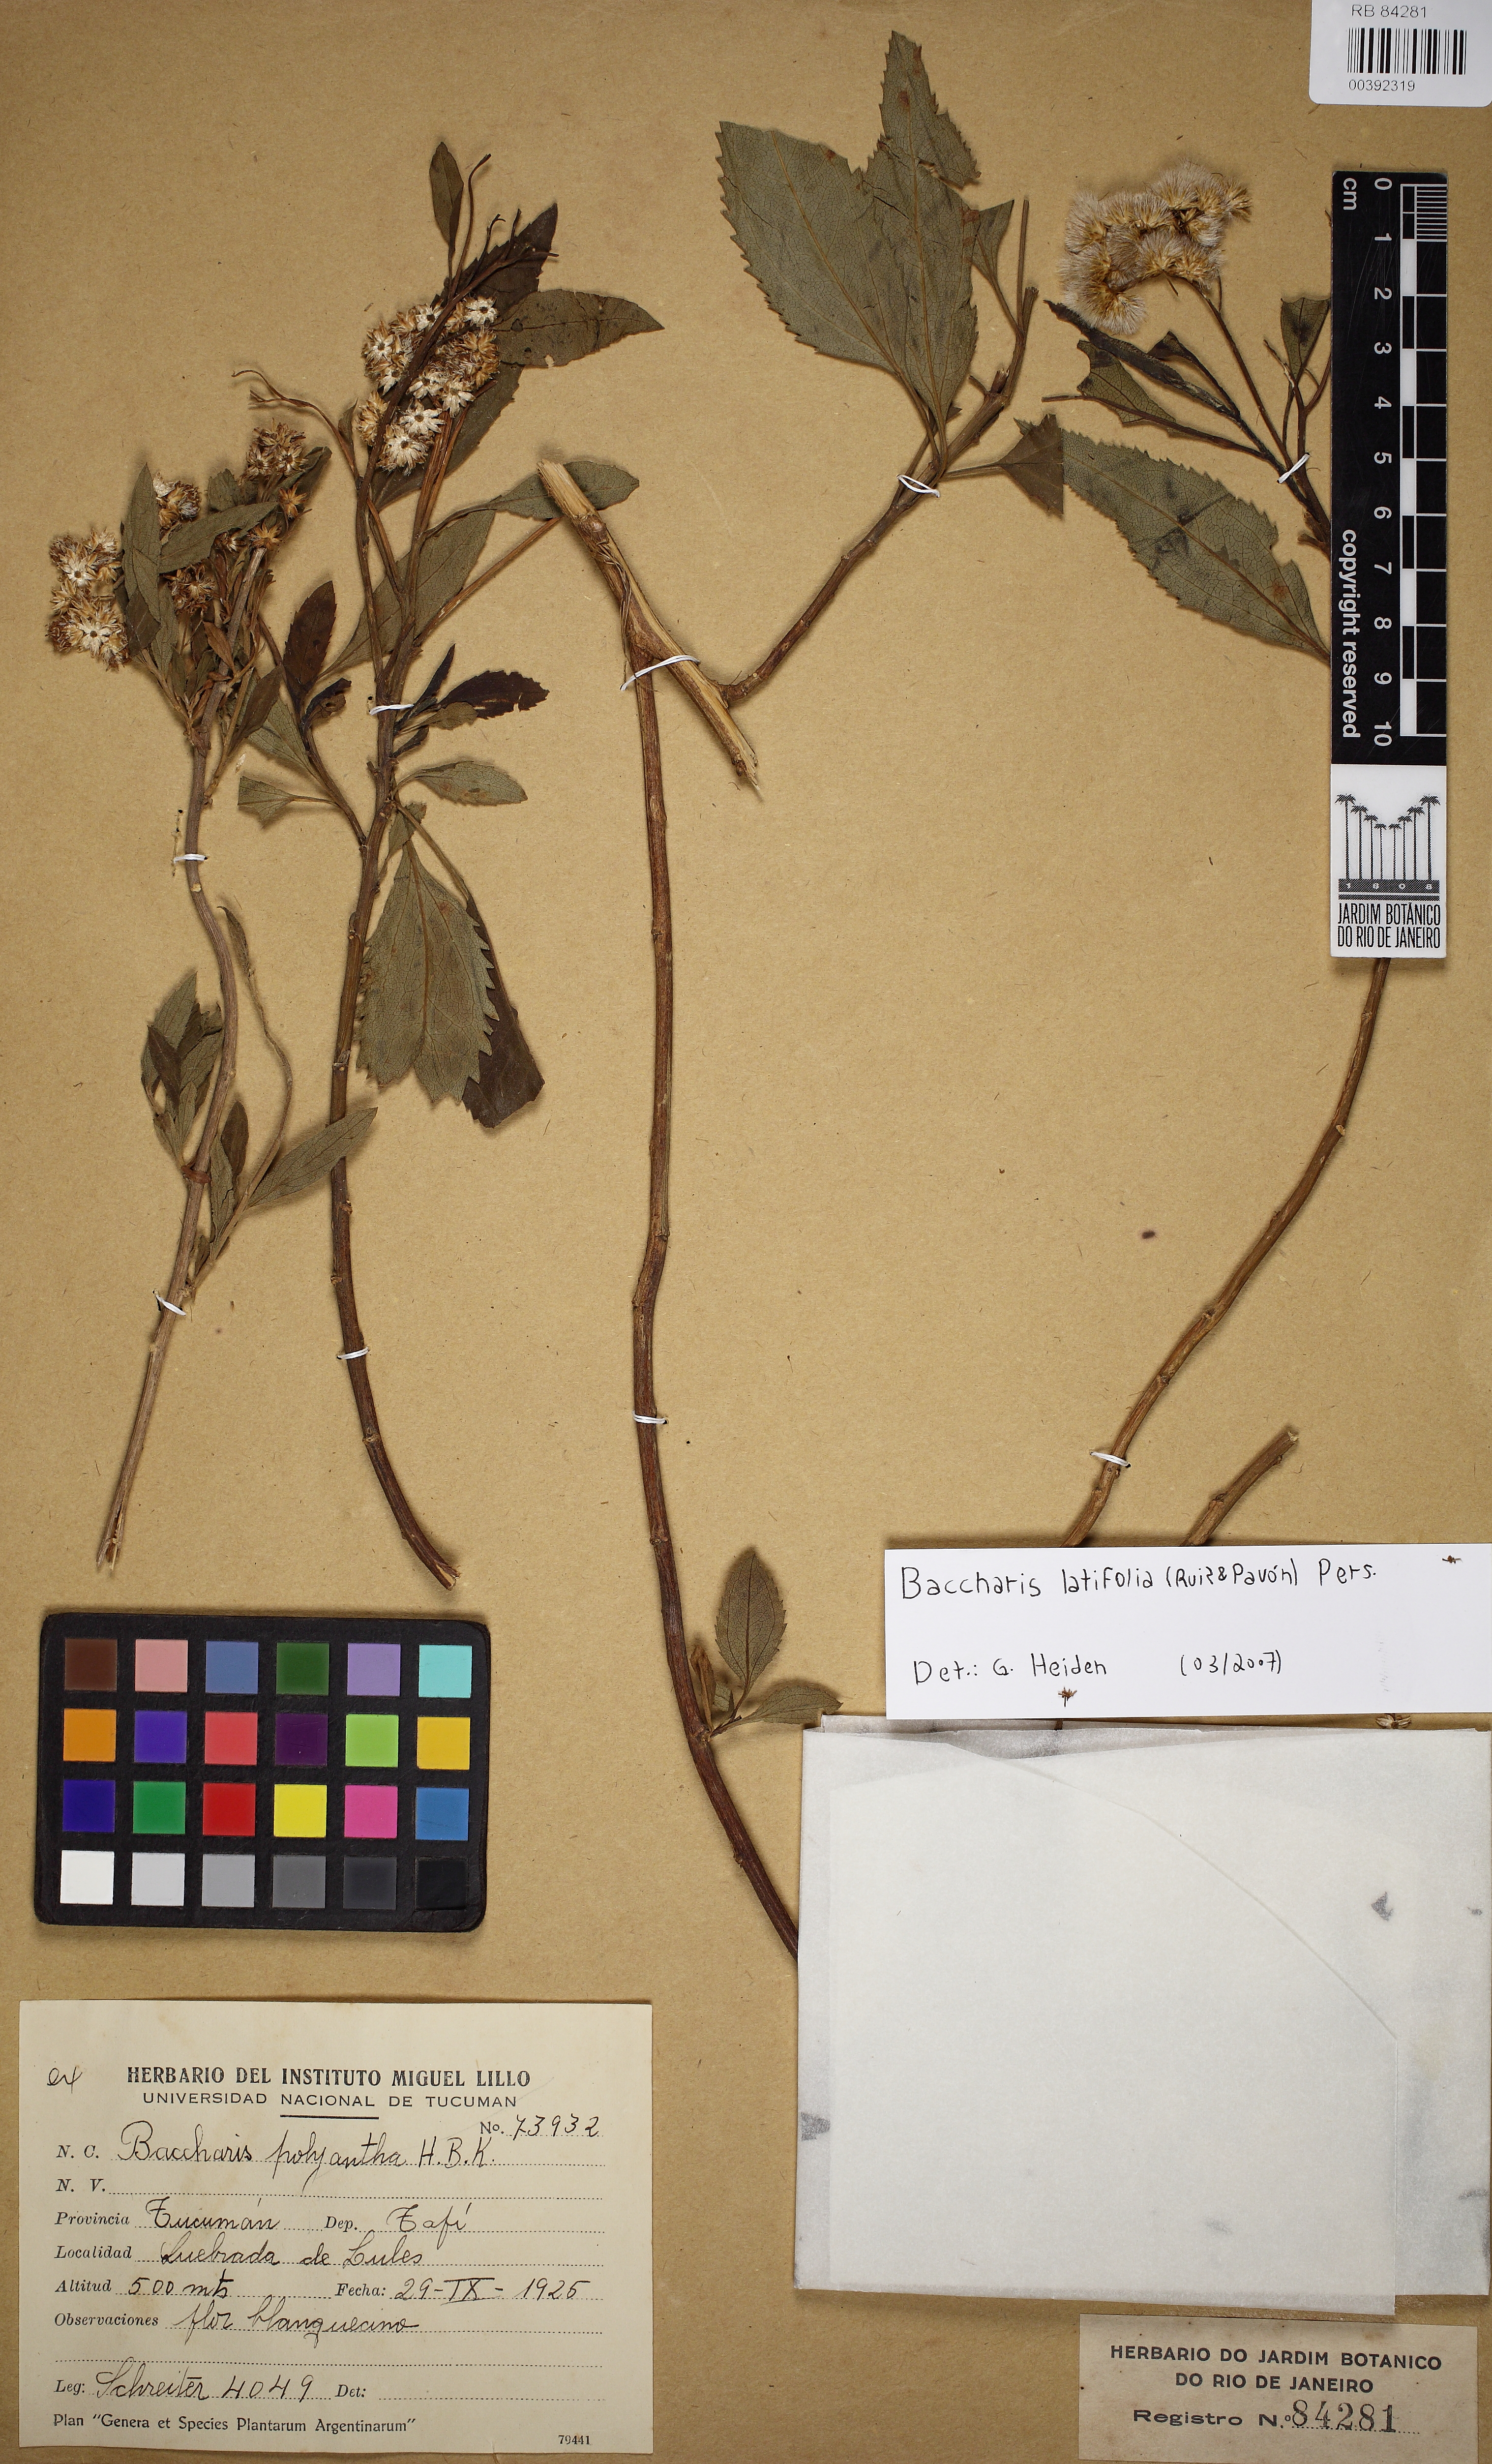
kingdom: Plantae
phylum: Tracheophyta
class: Magnoliopsida
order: Asterales
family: Asteraceae
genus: Baccharis
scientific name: Baccharis latifolia
